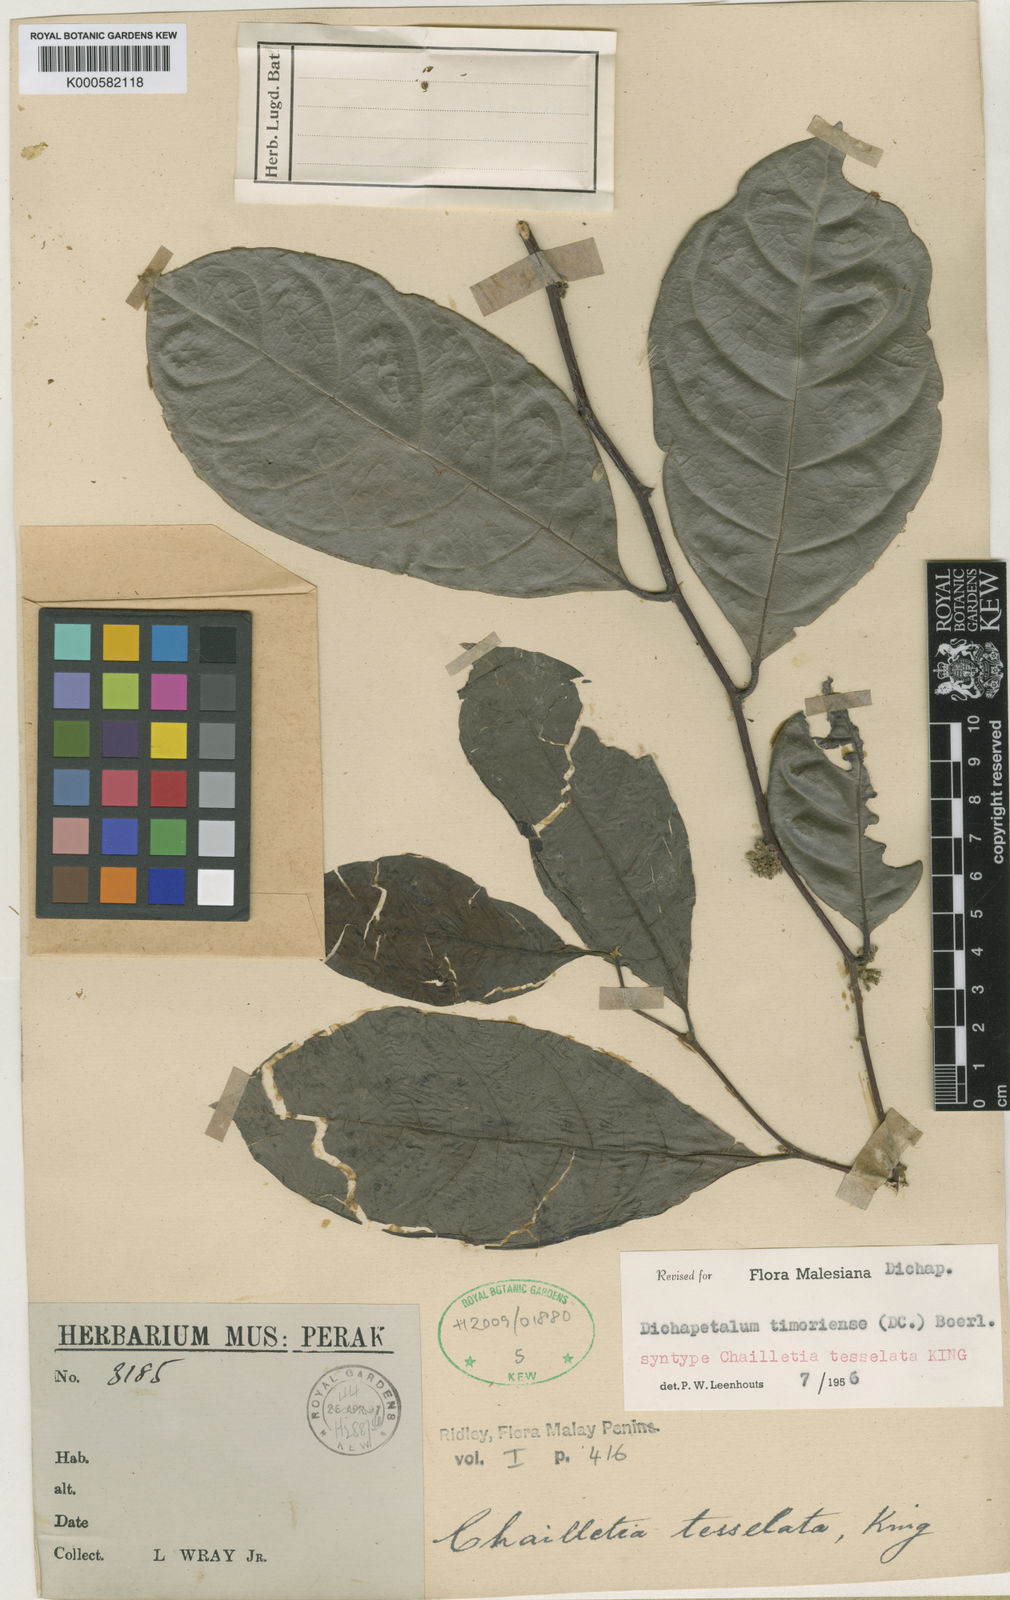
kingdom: Plantae
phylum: Tracheophyta
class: Magnoliopsida
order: Malpighiales
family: Dichapetalaceae
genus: Dichapetalum
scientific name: Dichapetalum timoriense
